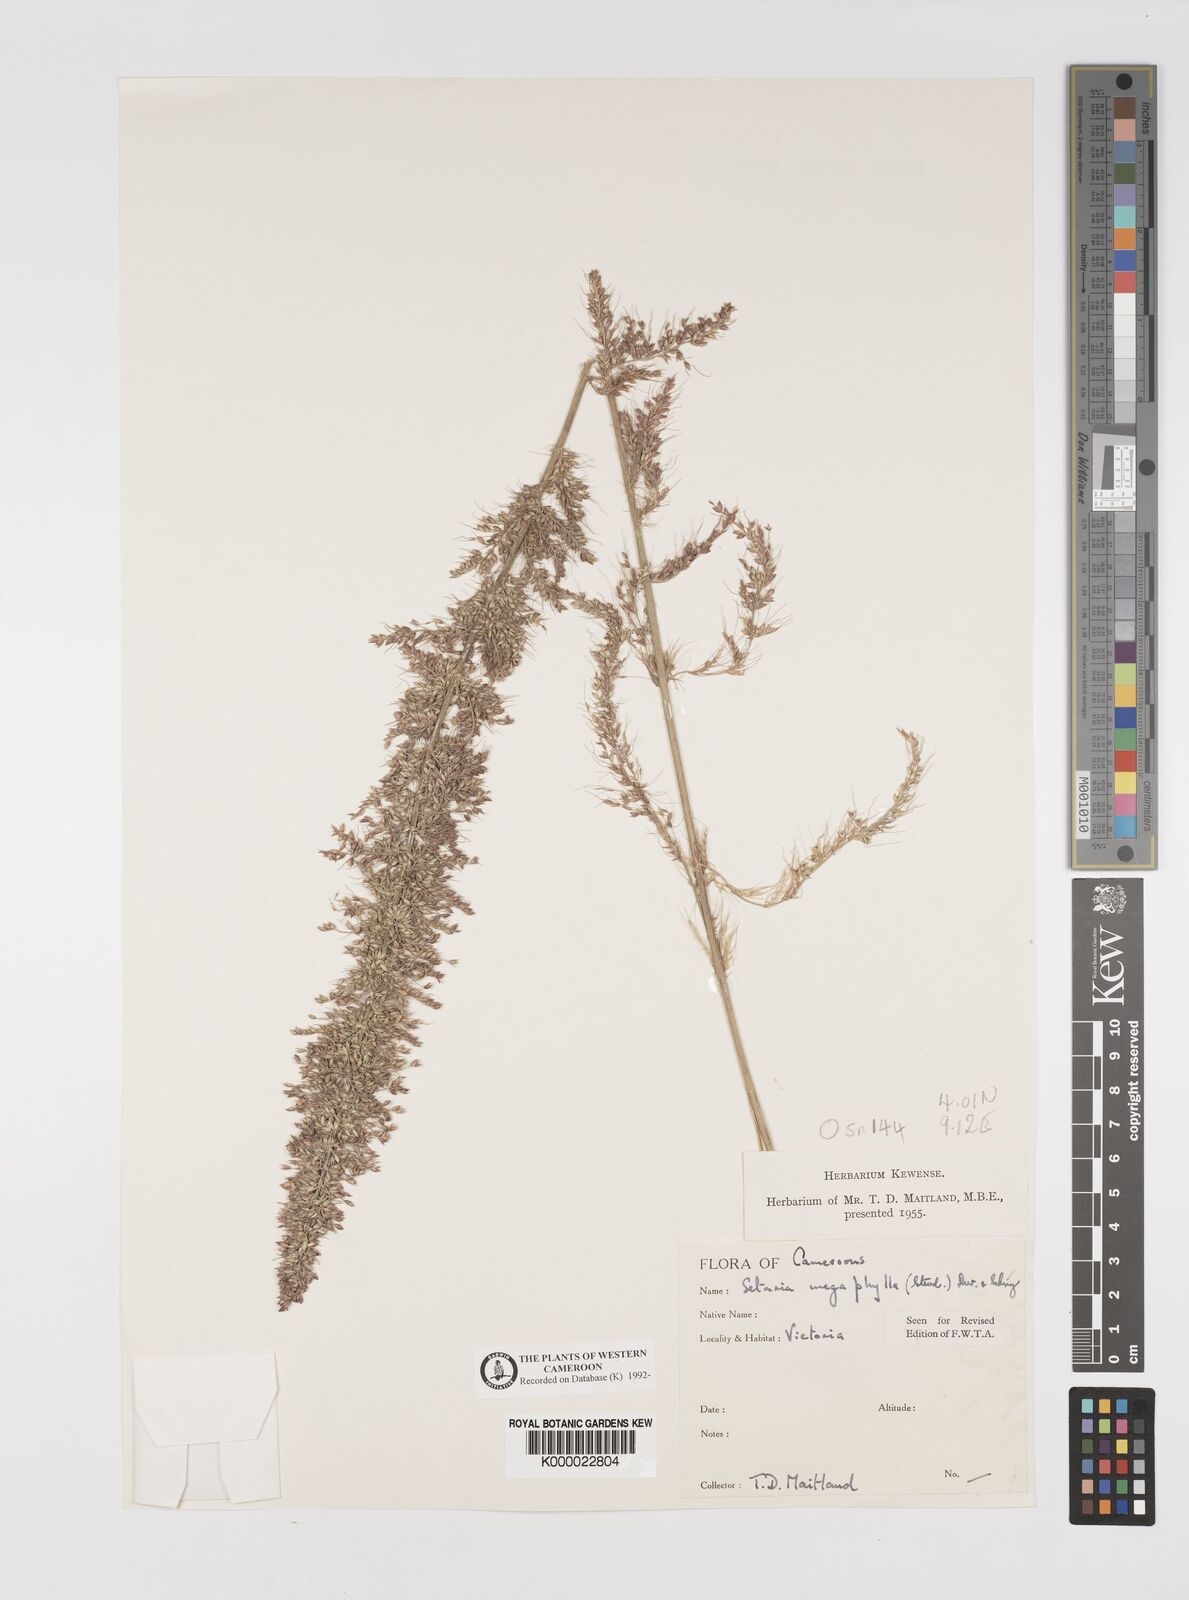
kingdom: Plantae
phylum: Tracheophyta
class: Liliopsida
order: Poales
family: Poaceae
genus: Setaria
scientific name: Setaria megaphylla
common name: Bigleaf bristlegrass
